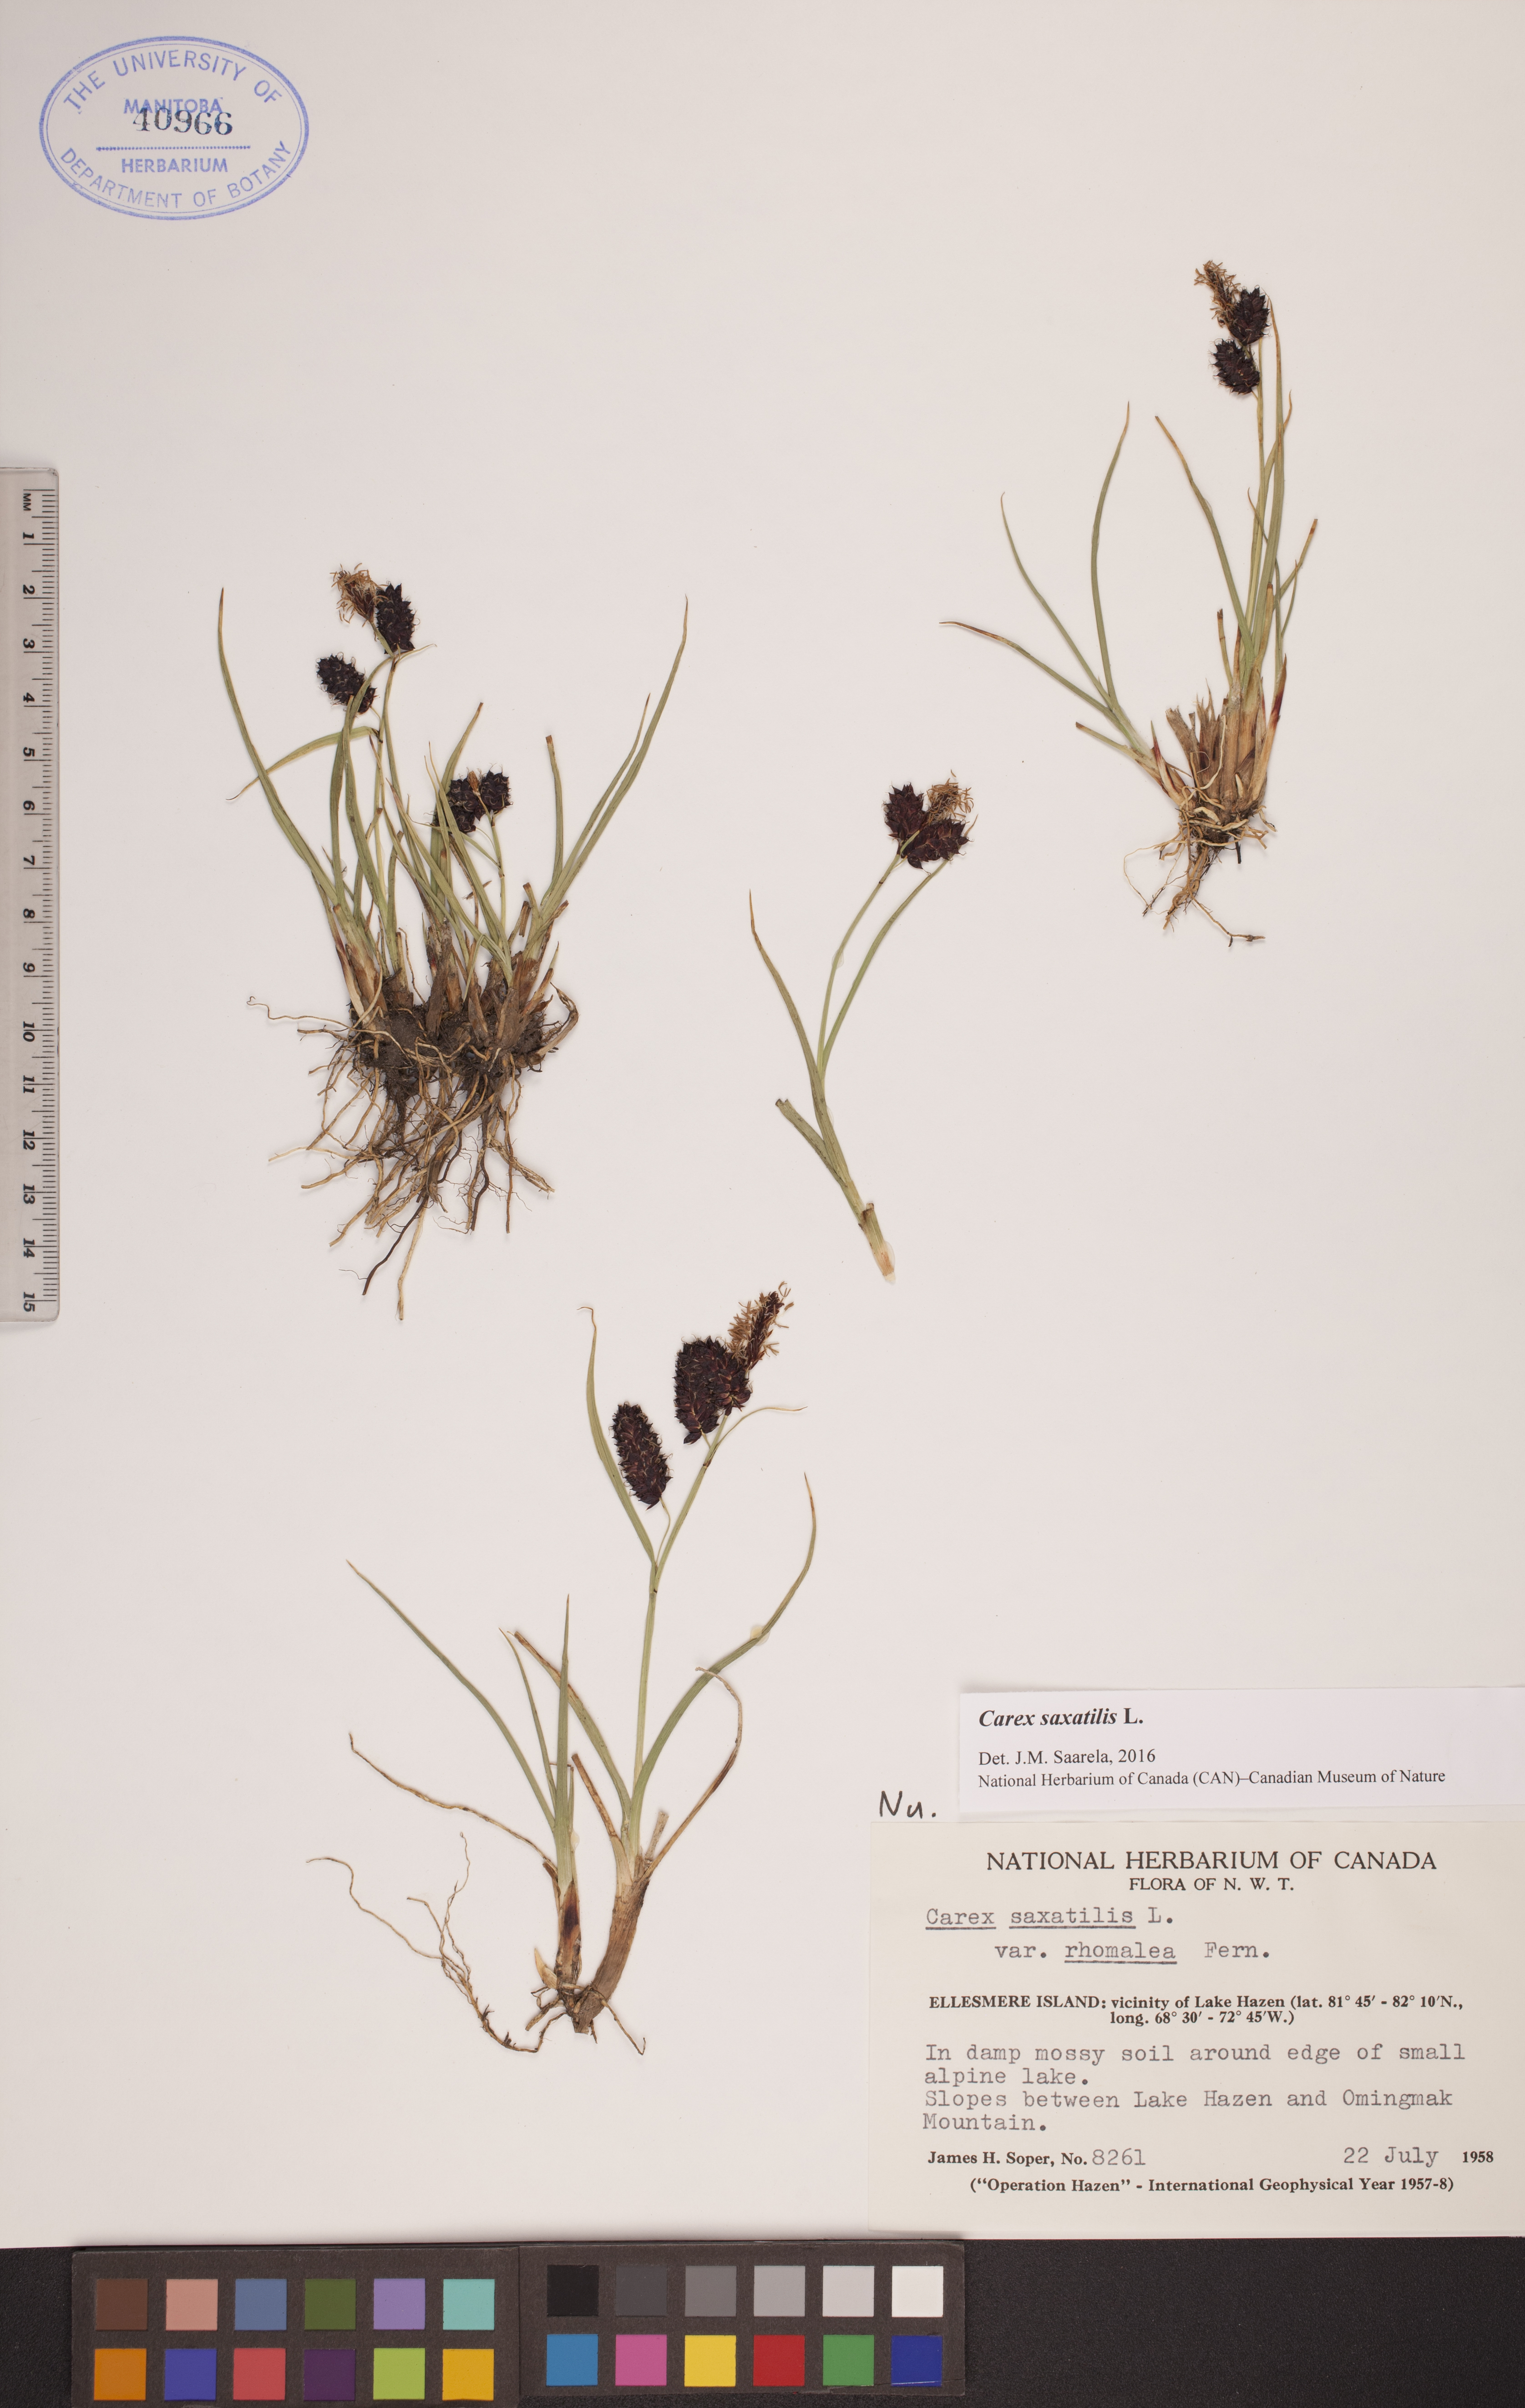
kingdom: Plantae
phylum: Tracheophyta
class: Liliopsida
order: Poales
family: Cyperaceae
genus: Carex
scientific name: Carex saxatilis
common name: Russet sedge
